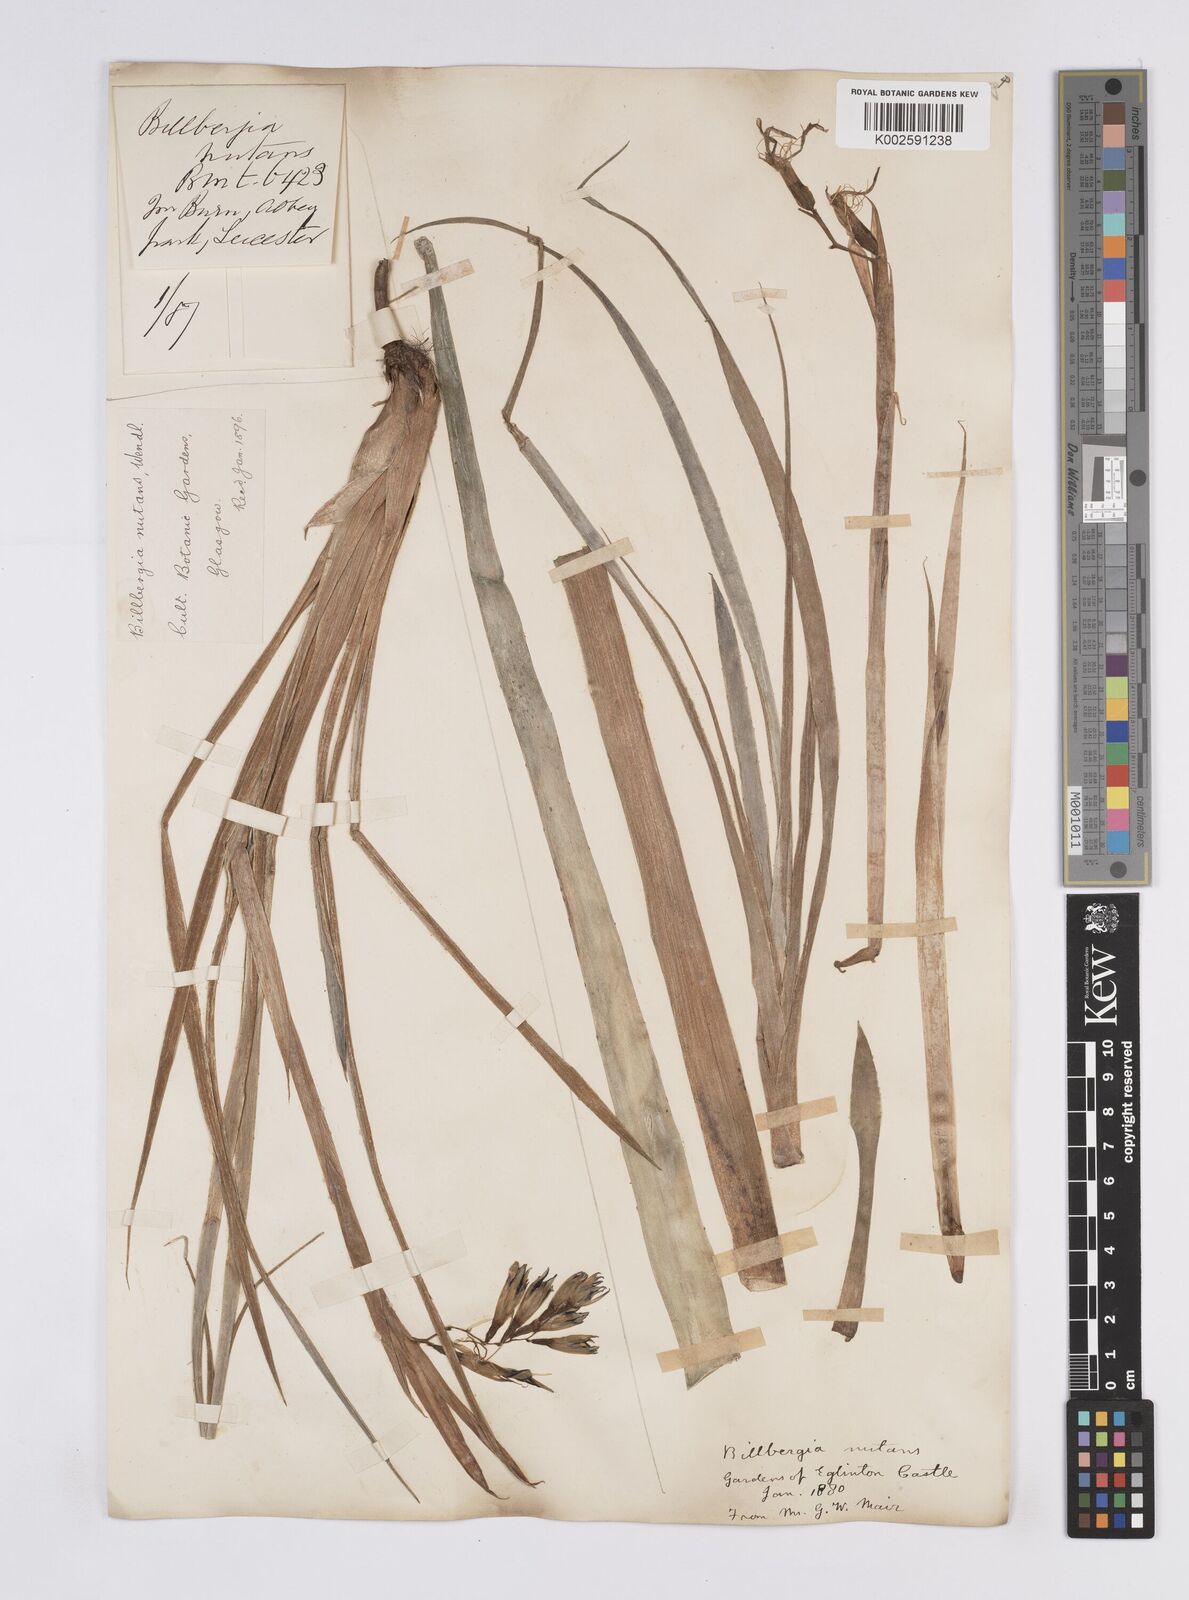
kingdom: Plantae
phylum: Tracheophyta
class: Liliopsida
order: Poales
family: Bromeliaceae
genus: Billbergia
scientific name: Billbergia nutans
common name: Friendship-plant
